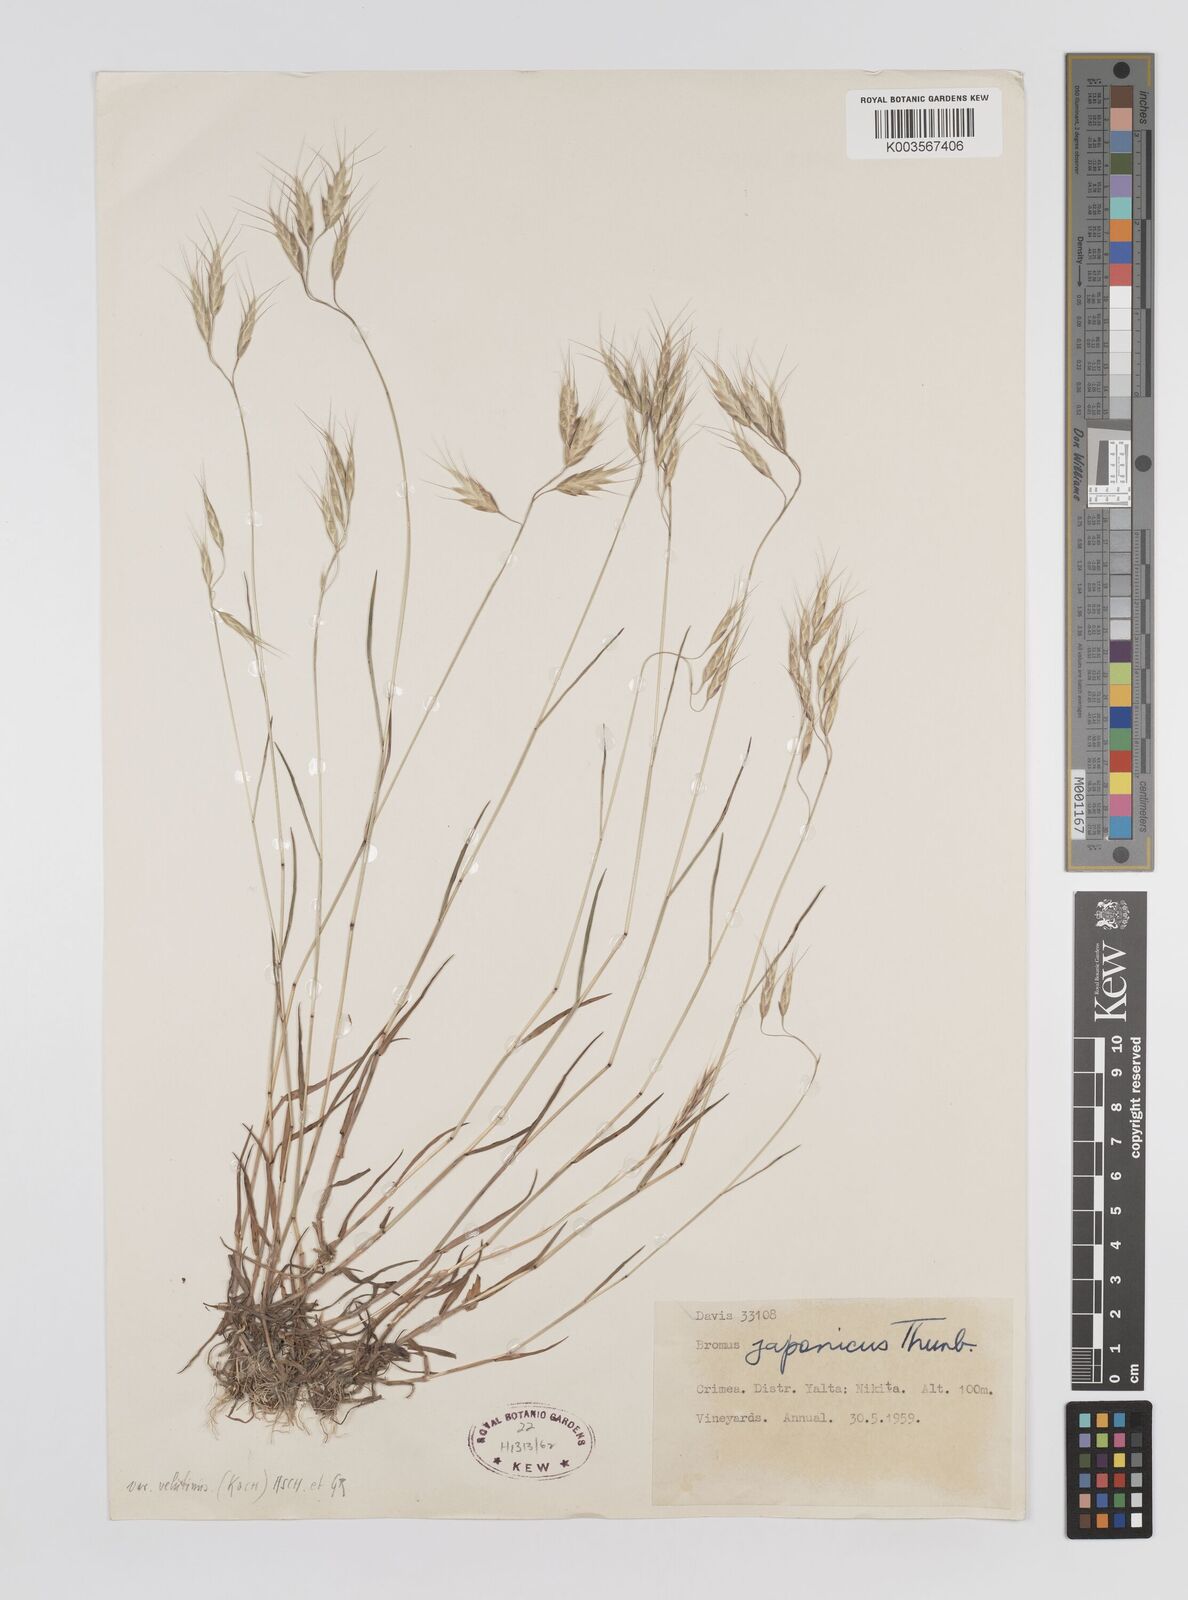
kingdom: Plantae
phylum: Tracheophyta
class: Liliopsida
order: Poales
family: Poaceae
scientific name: Poaceae
